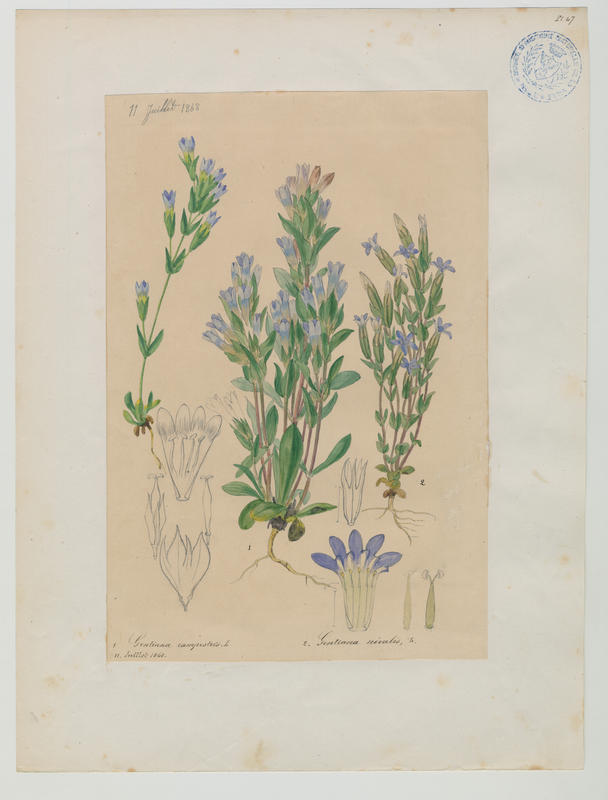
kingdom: Plantae
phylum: Tracheophyta
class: Magnoliopsida
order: Gentianales
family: Gentianaceae
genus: Gentiana
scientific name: Gentiana nivalis
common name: Alpine gentian
